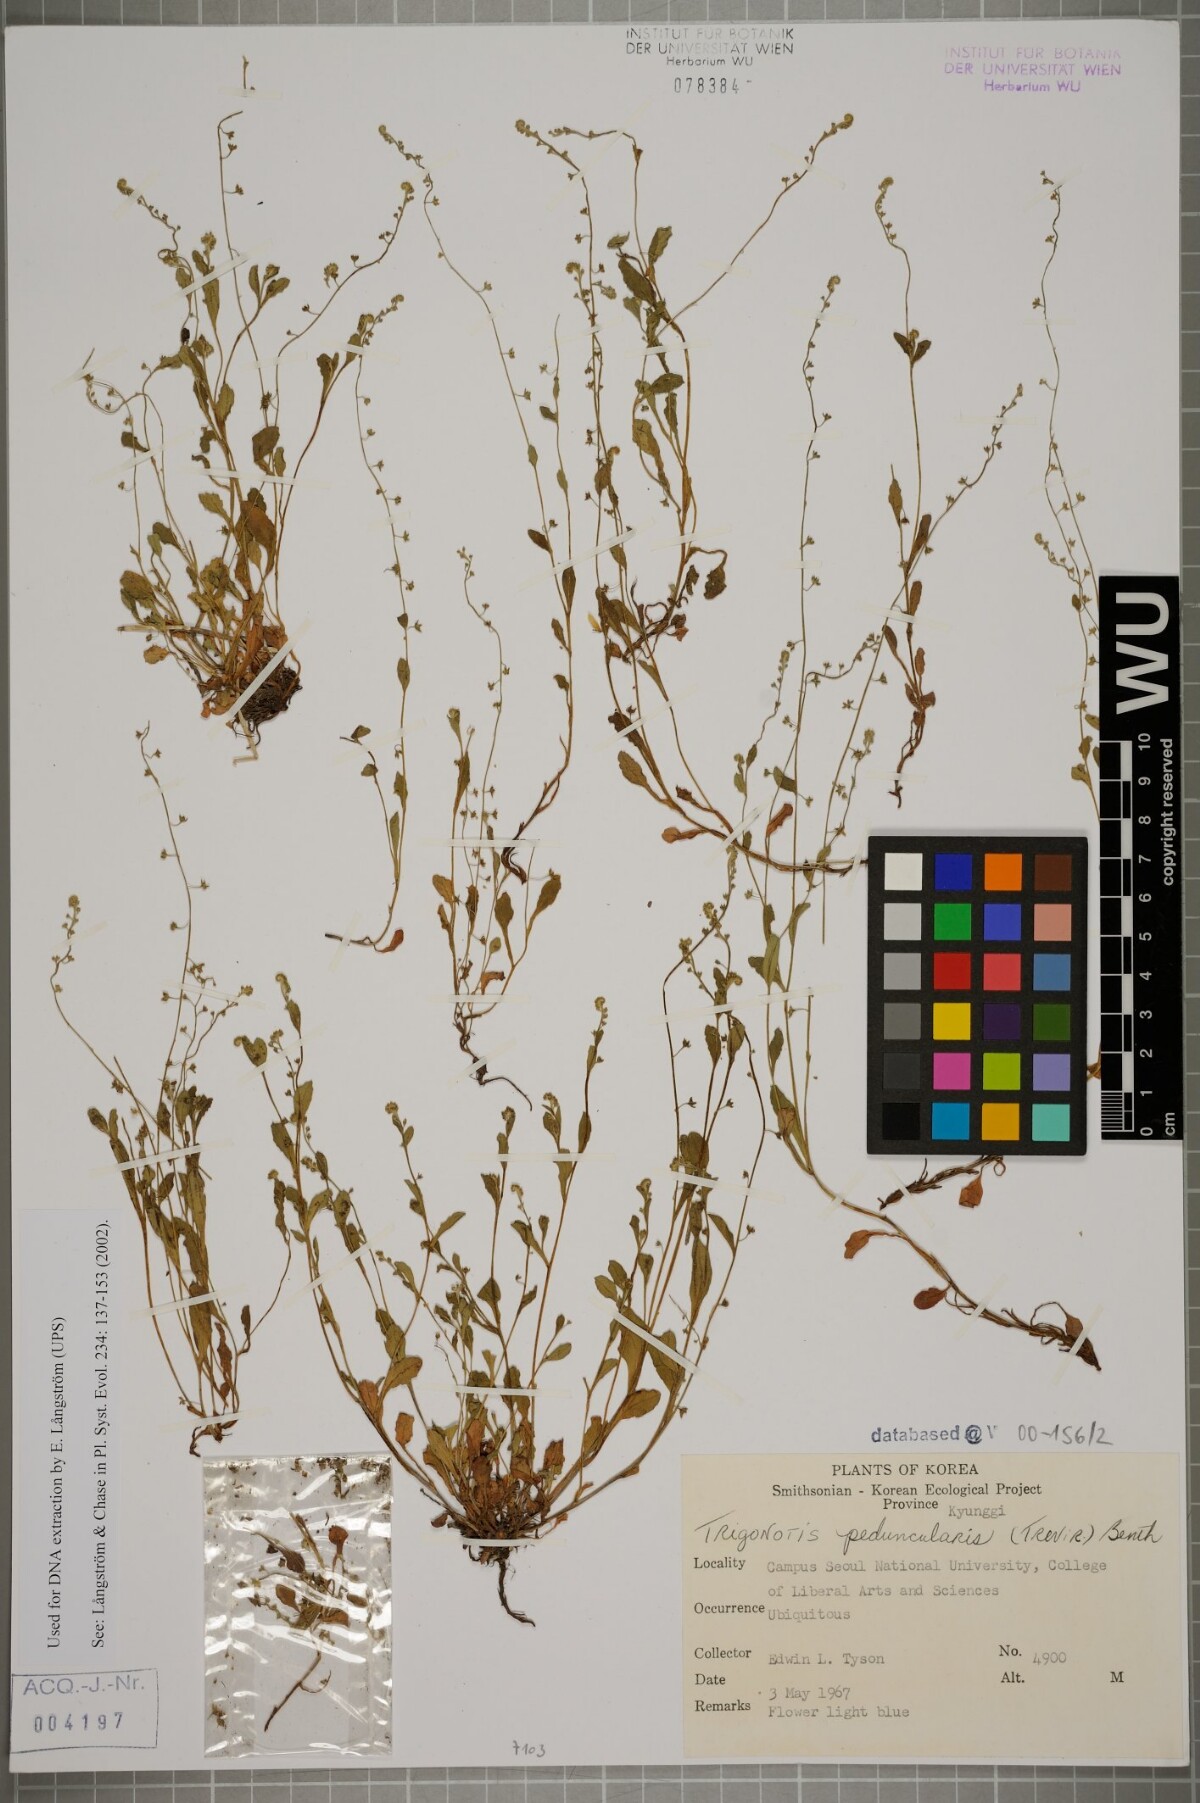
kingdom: Plantae
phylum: Tracheophyta
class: Magnoliopsida
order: Boraginales
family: Boraginaceae
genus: Trigonotis
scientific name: Trigonotis peduncularis
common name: Cucumber herb
